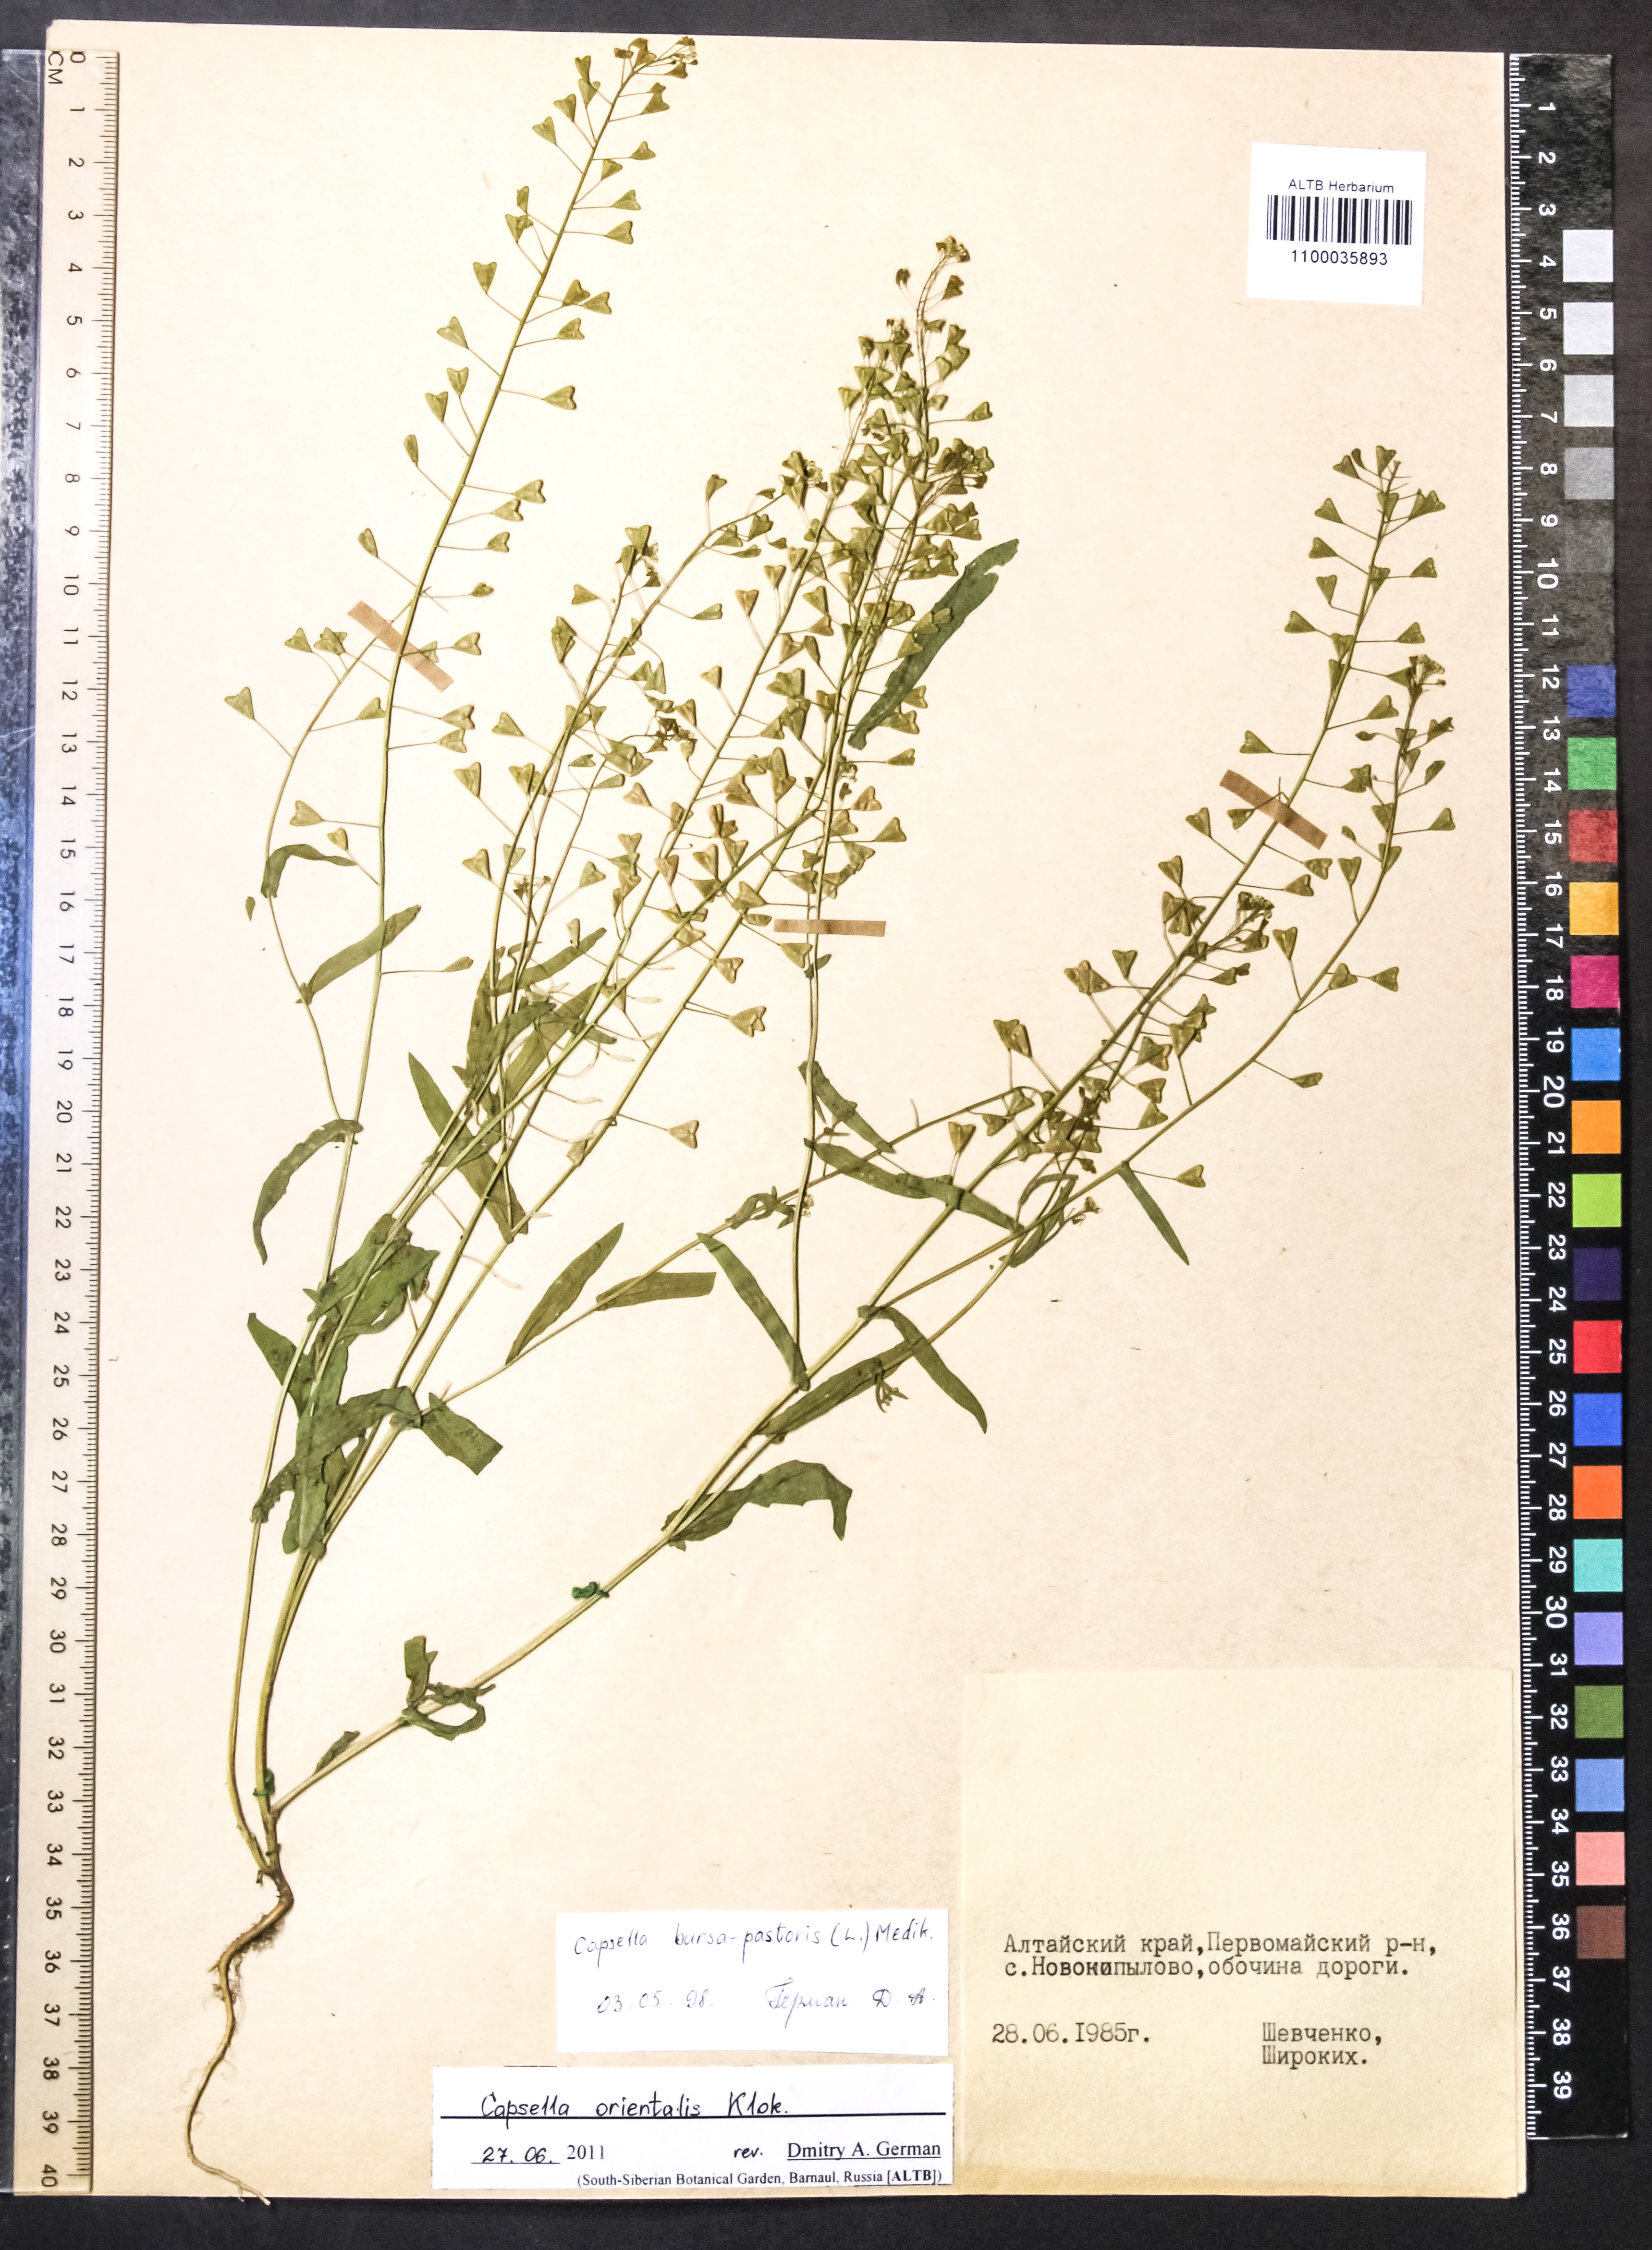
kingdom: Plantae
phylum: Tracheophyta
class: Magnoliopsida
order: Brassicales
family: Brassicaceae
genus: Capsella
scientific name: Capsella orientalis
